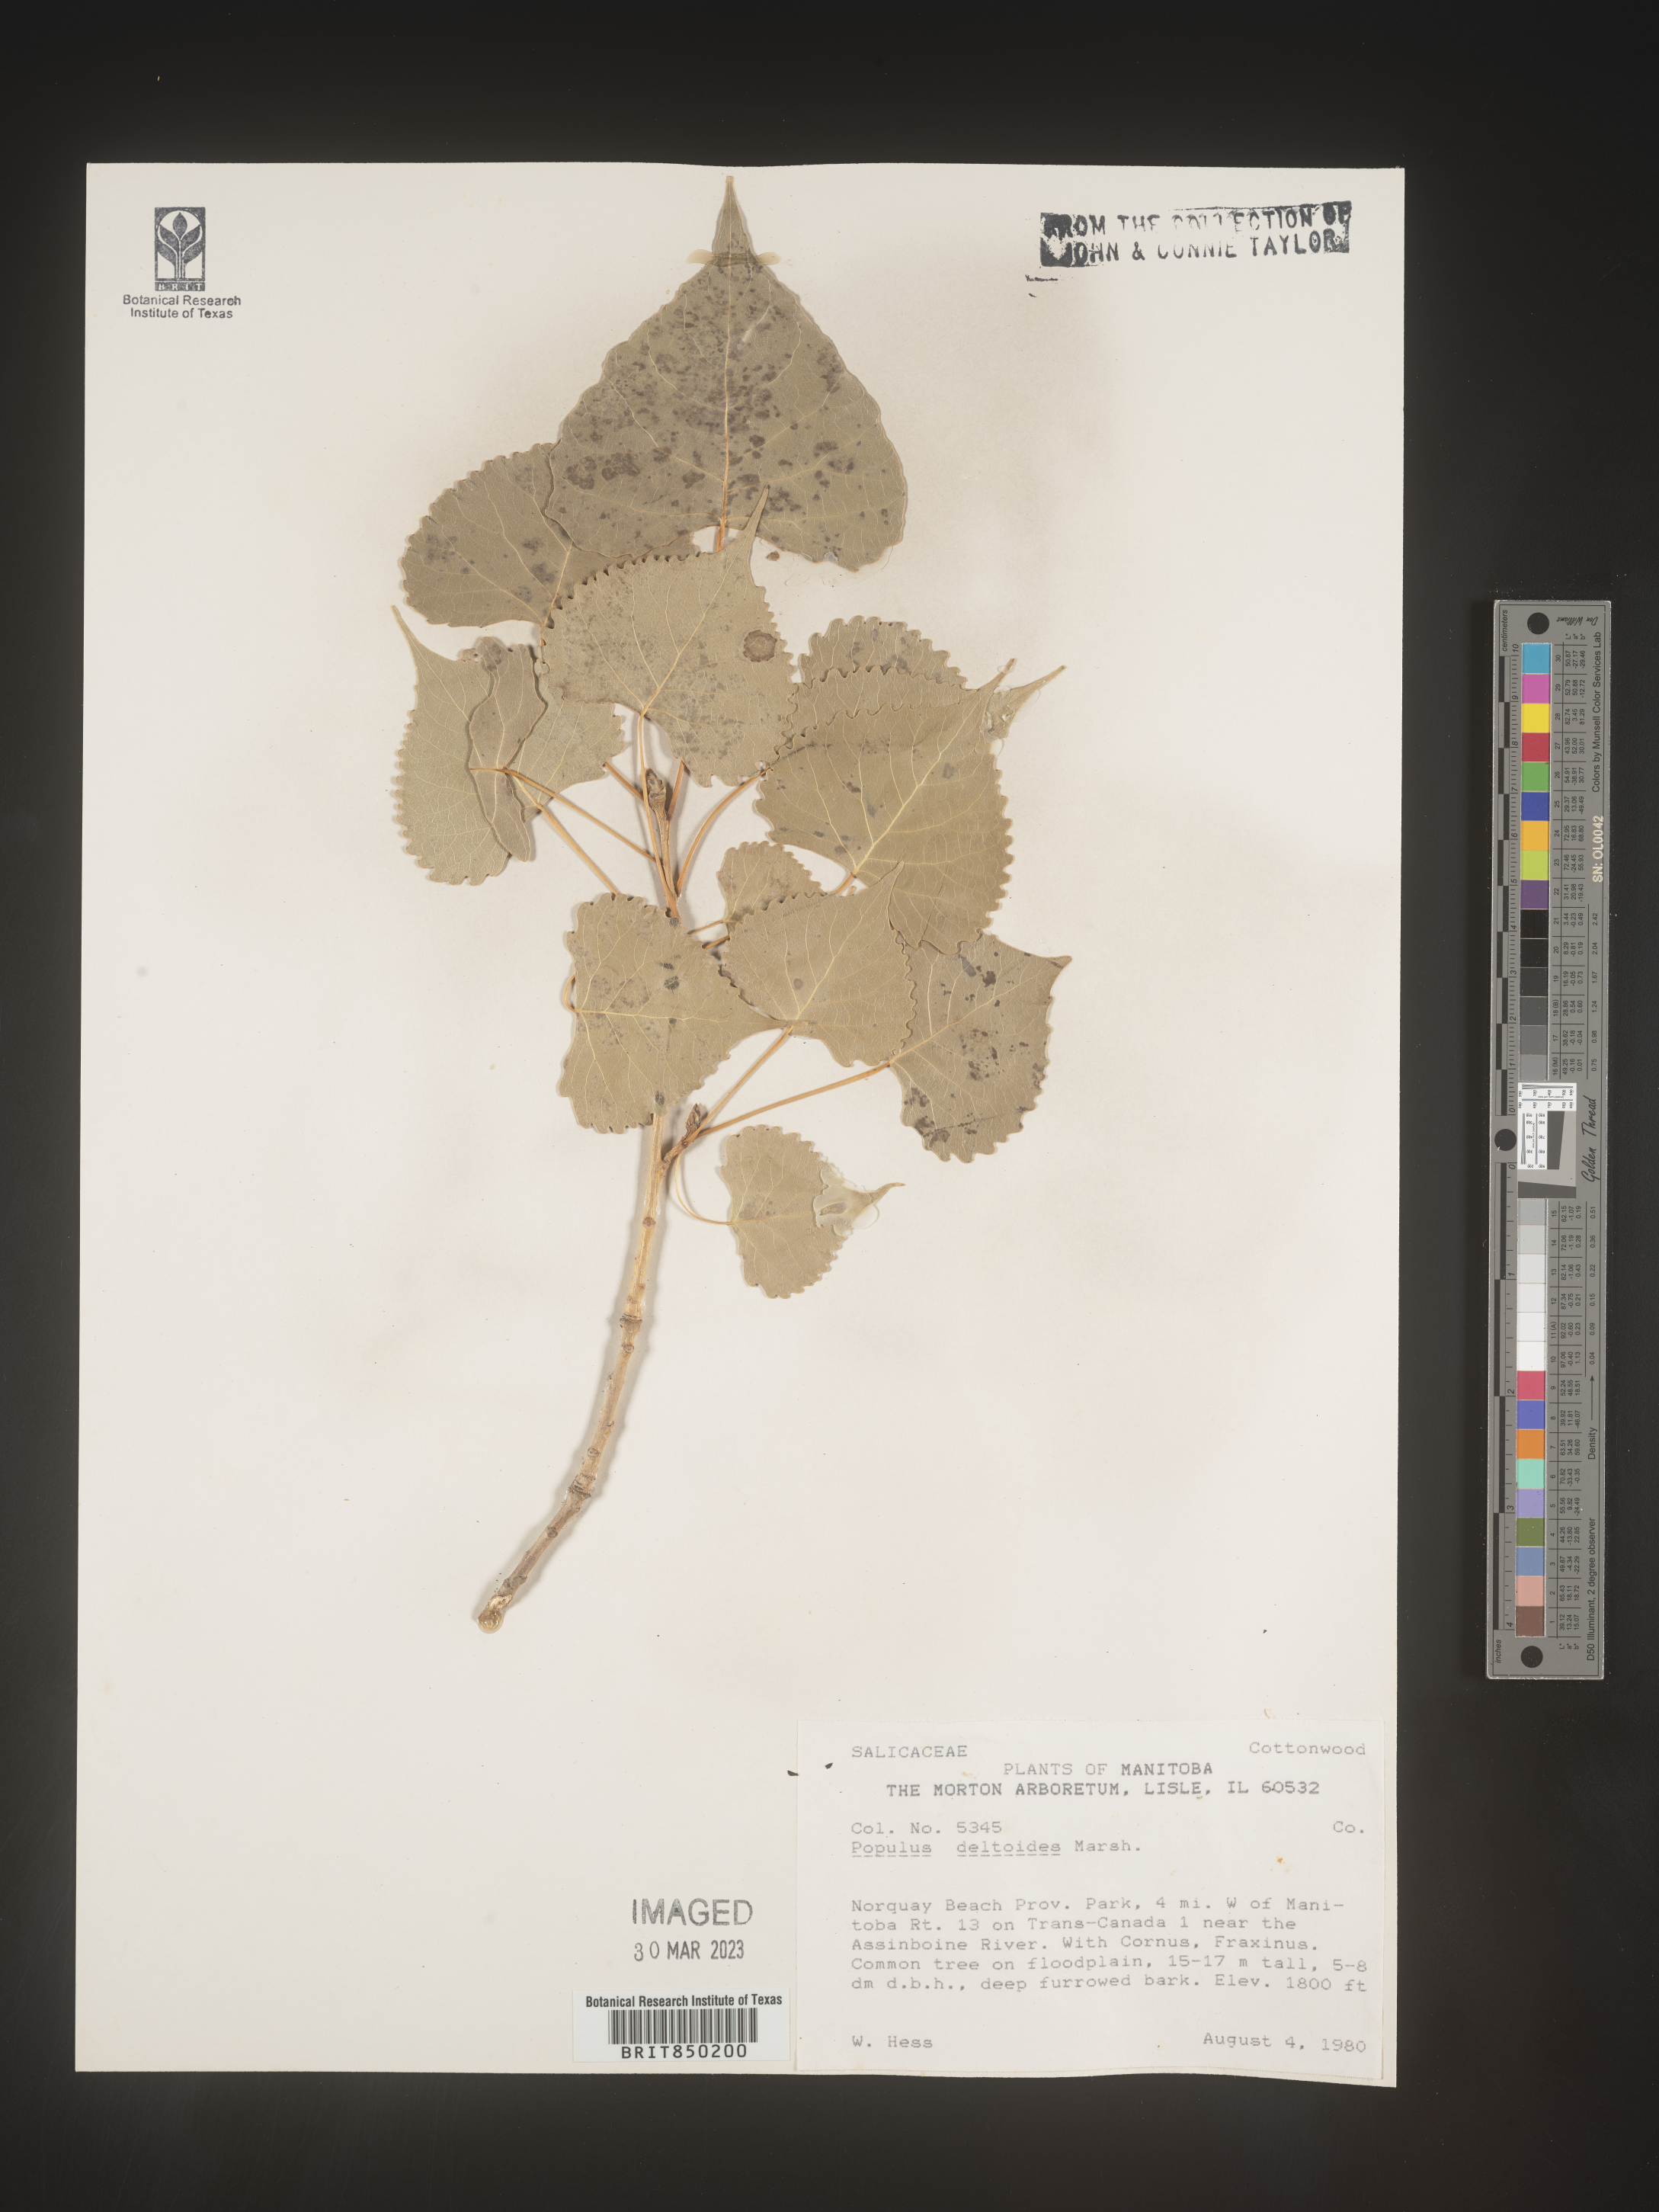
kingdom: Plantae
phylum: Tracheophyta
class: Magnoliopsida
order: Malpighiales
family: Salicaceae
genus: Populus
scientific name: Populus deltoides
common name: Eastern cottonwood
